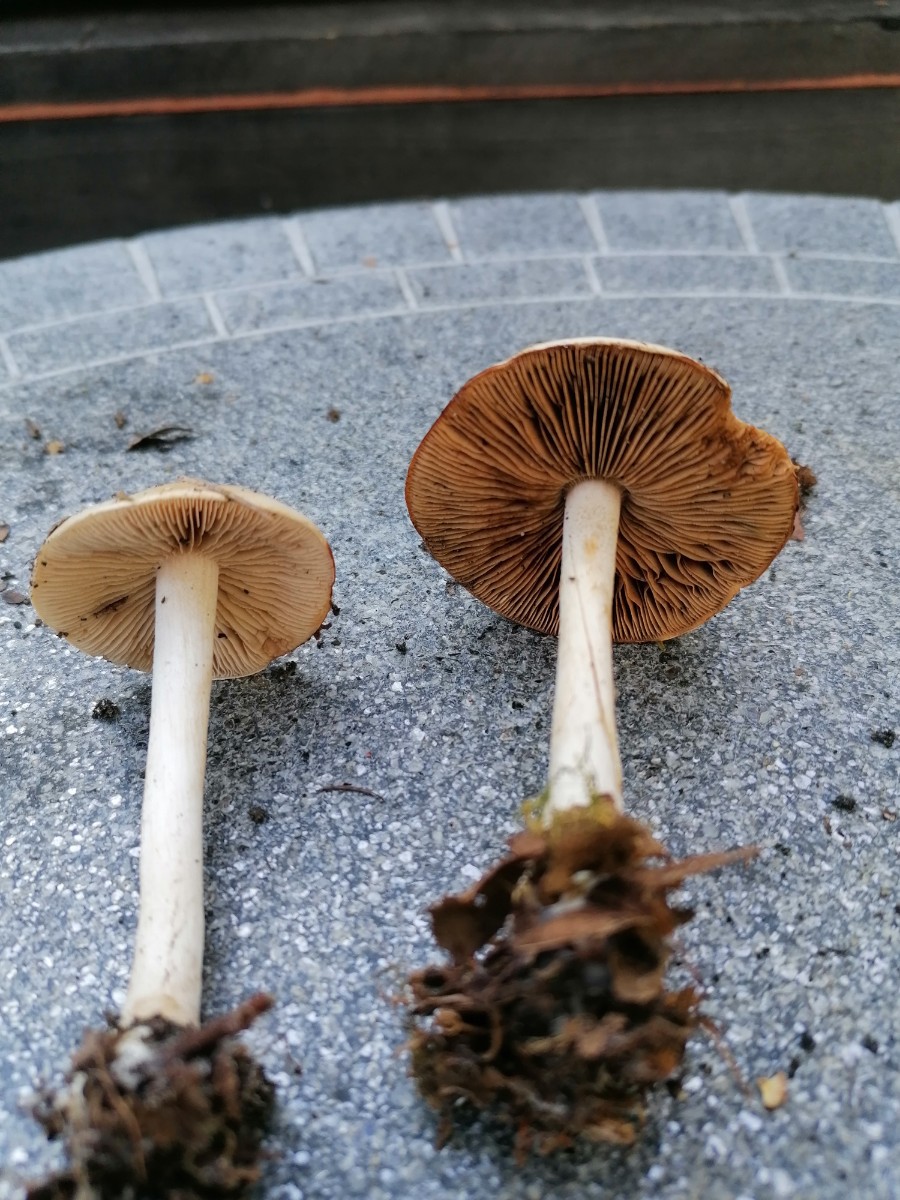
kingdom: Fungi
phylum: Basidiomycota
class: Agaricomycetes
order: Agaricales
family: Hymenogastraceae
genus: Hebeloma
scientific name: Hebeloma
